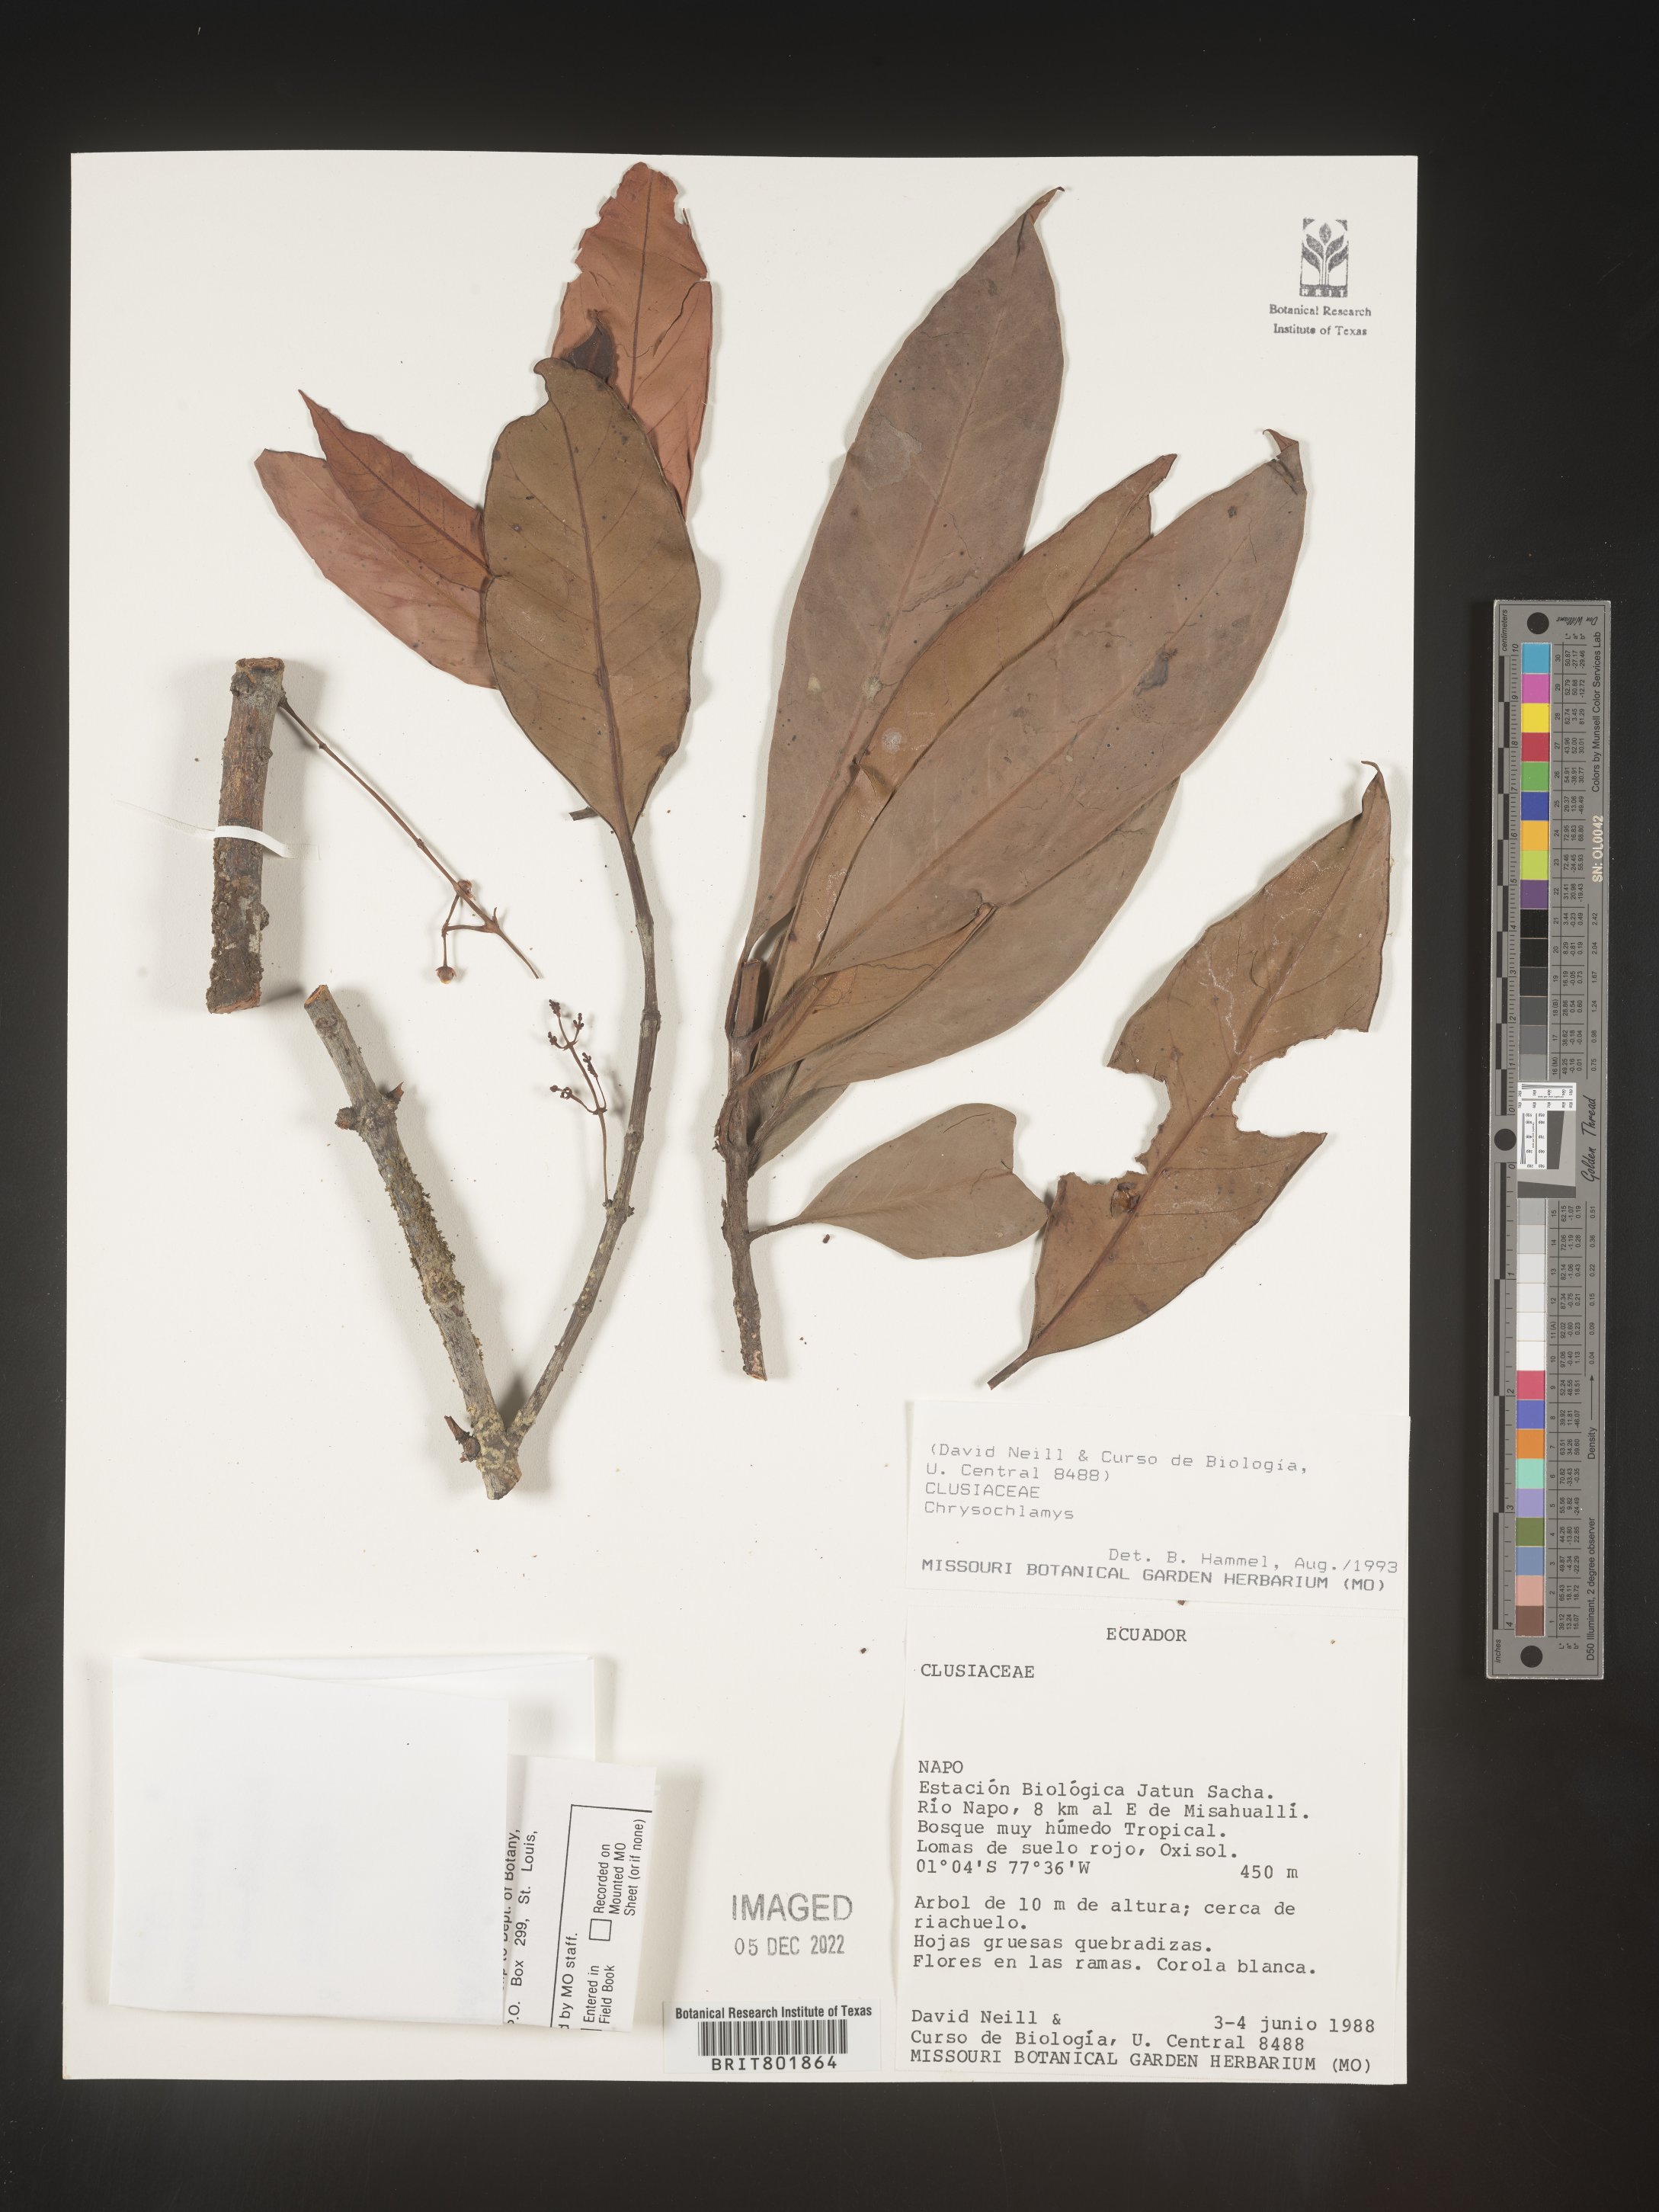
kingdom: Plantae
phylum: Tracheophyta
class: Magnoliopsida
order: Malpighiales
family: Clusiaceae
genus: Chrysochlamys
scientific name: Chrysochlamys
